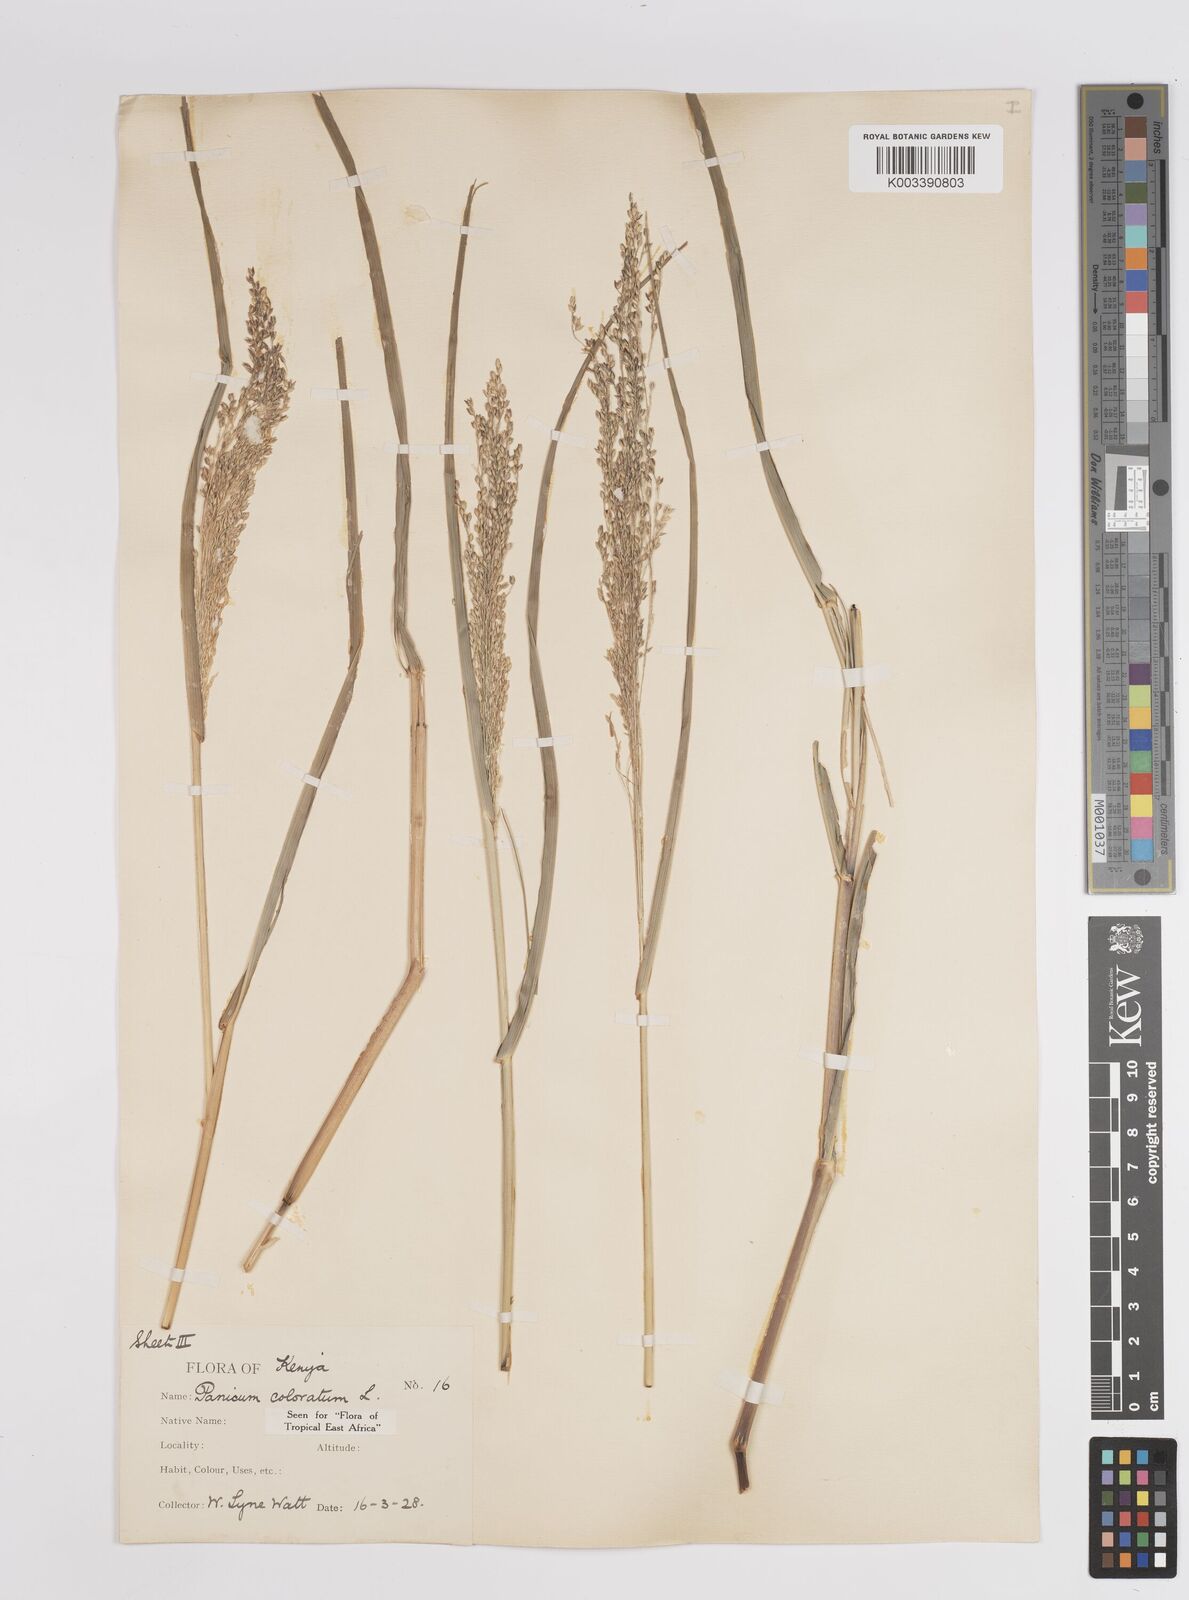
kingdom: Plantae
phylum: Tracheophyta
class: Liliopsida
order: Poales
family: Poaceae
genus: Panicum
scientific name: Panicum coloratum
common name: Kleingrass
